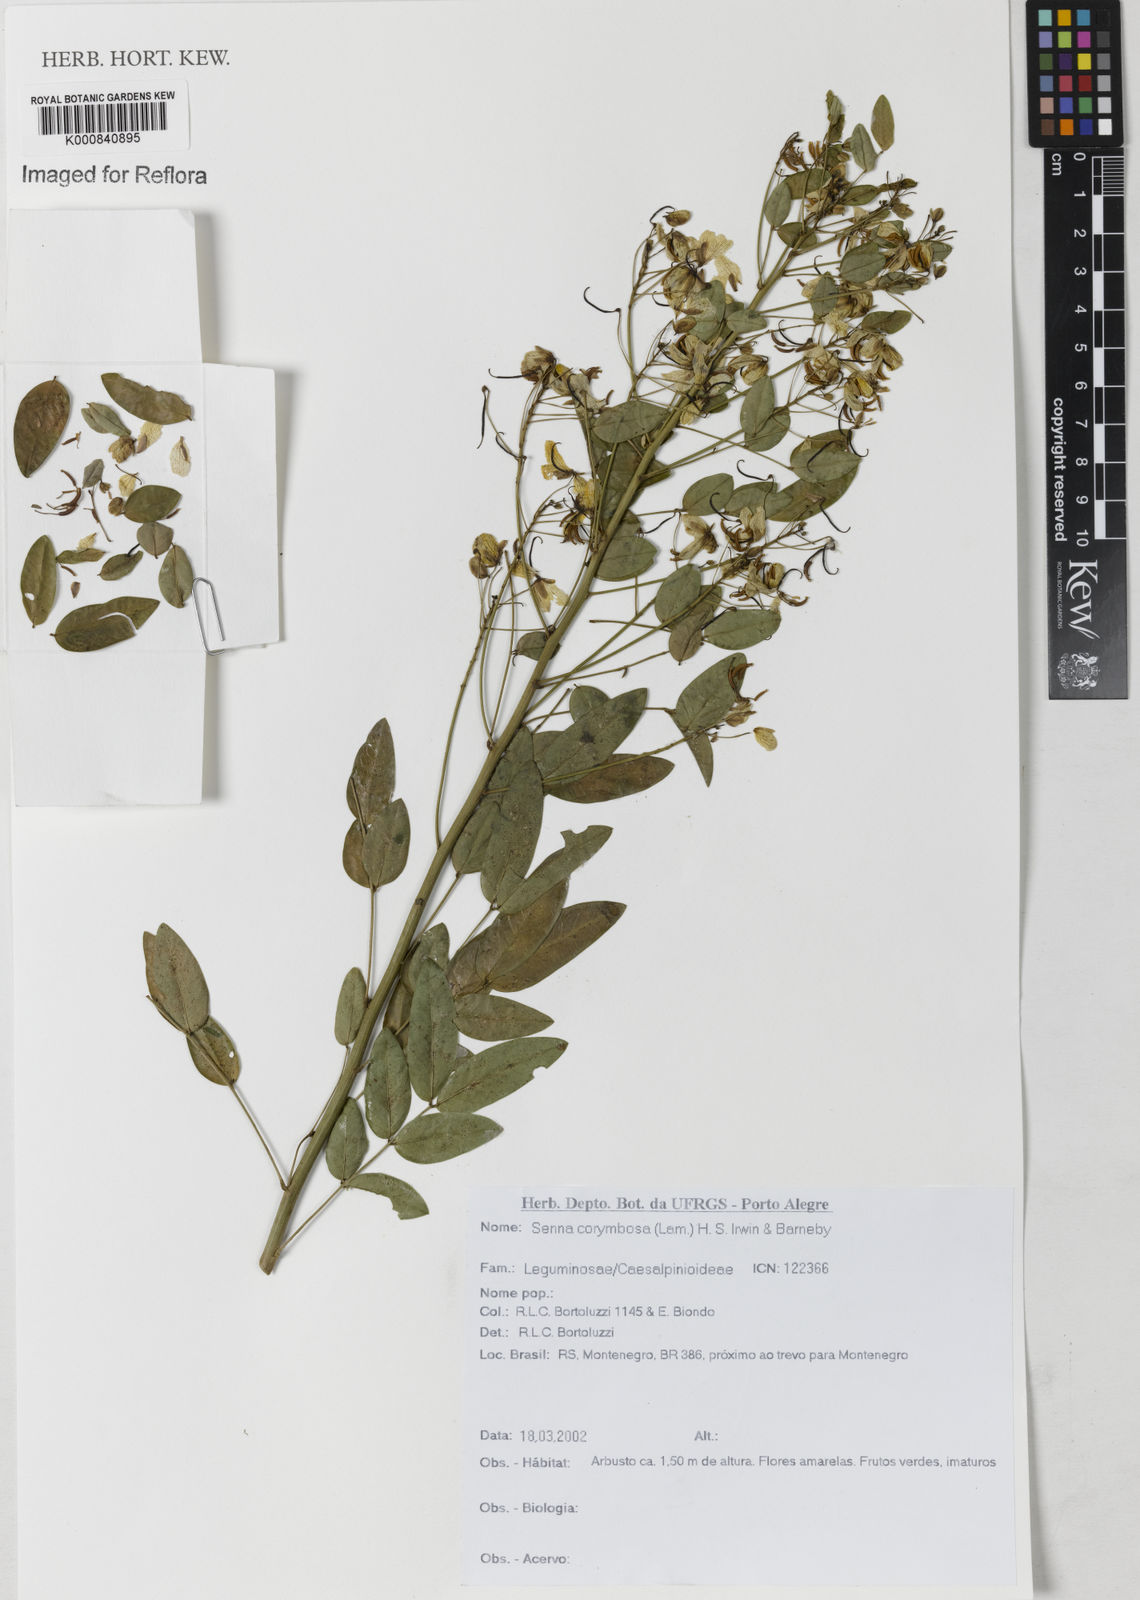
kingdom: Plantae
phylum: Tracheophyta
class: Magnoliopsida
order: Fabales
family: Fabaceae
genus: Senna
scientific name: Senna corymbosa
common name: Argentine senna
